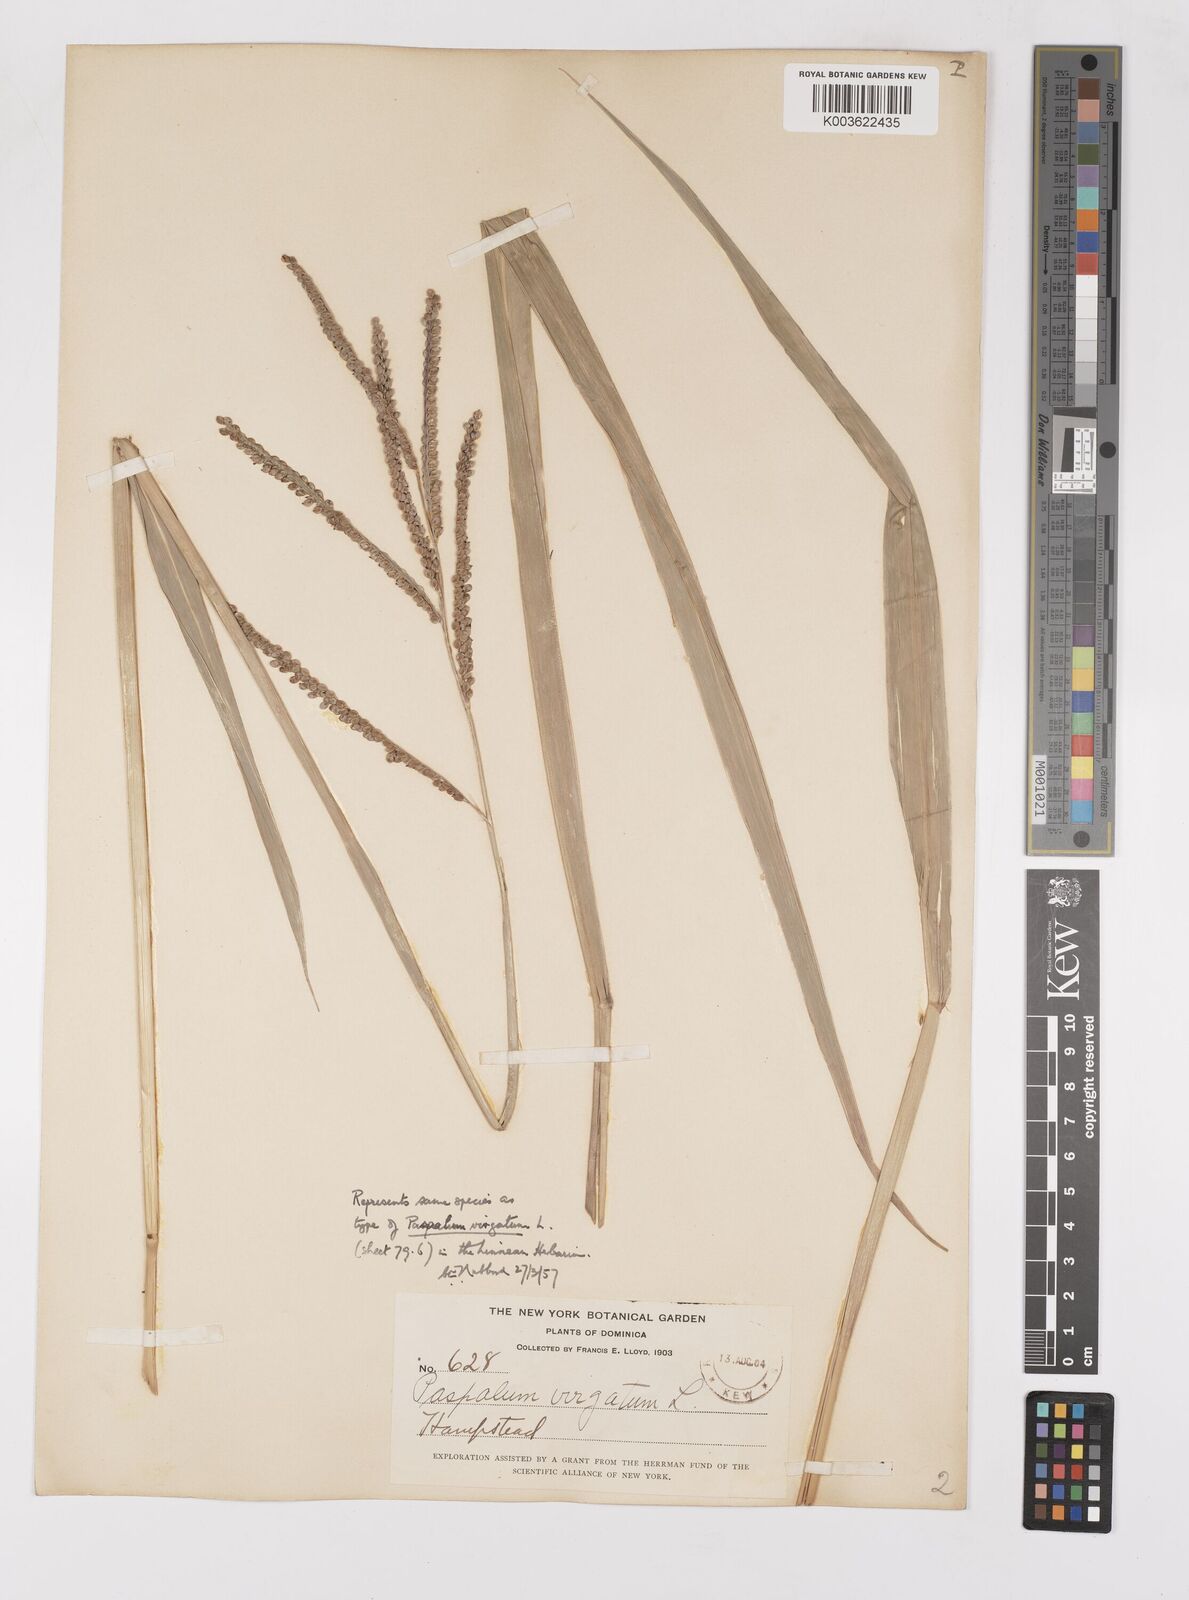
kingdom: Plantae
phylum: Tracheophyta
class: Liliopsida
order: Poales
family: Poaceae
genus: Paspalum
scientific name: Paspalum virgatum
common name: Talquezal
